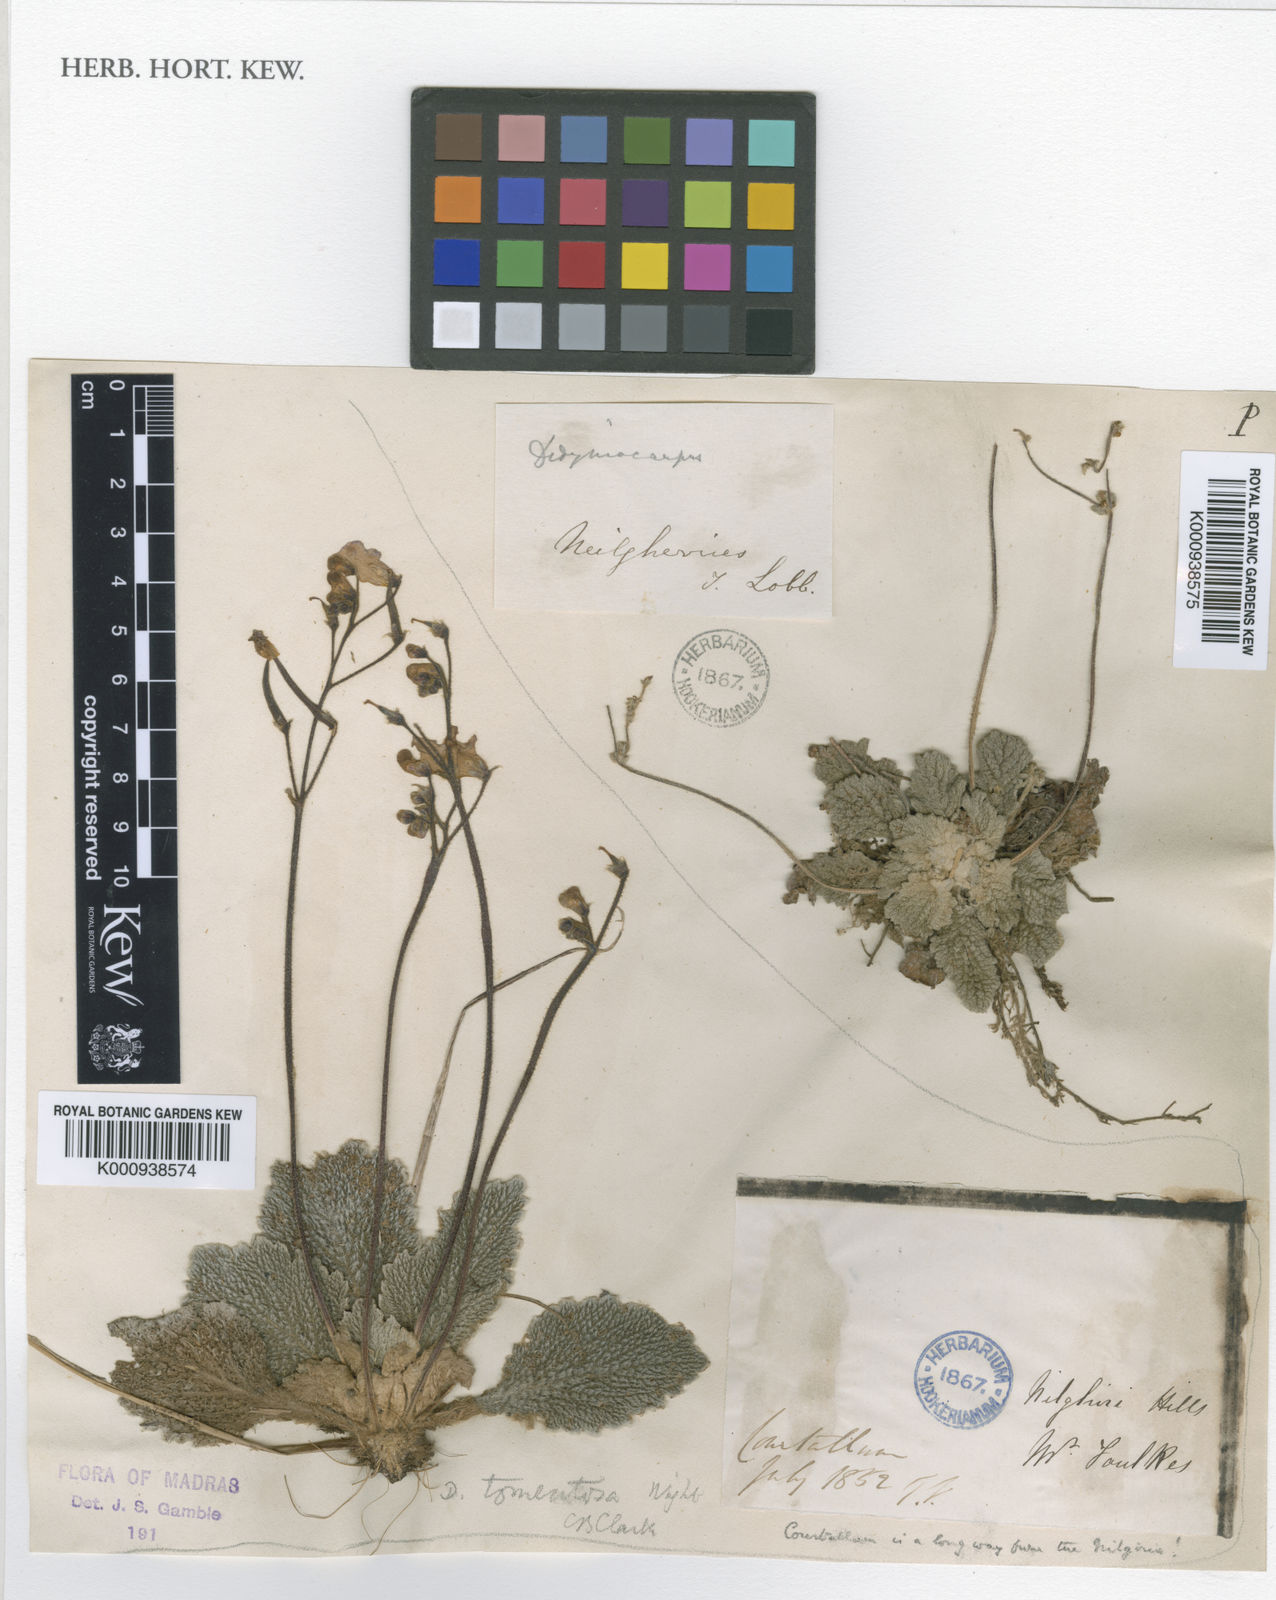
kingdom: Plantae
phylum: Tracheophyta
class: Magnoliopsida
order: Lamiales
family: Gesneriaceae
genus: Henckelia
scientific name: Henckelia incana
